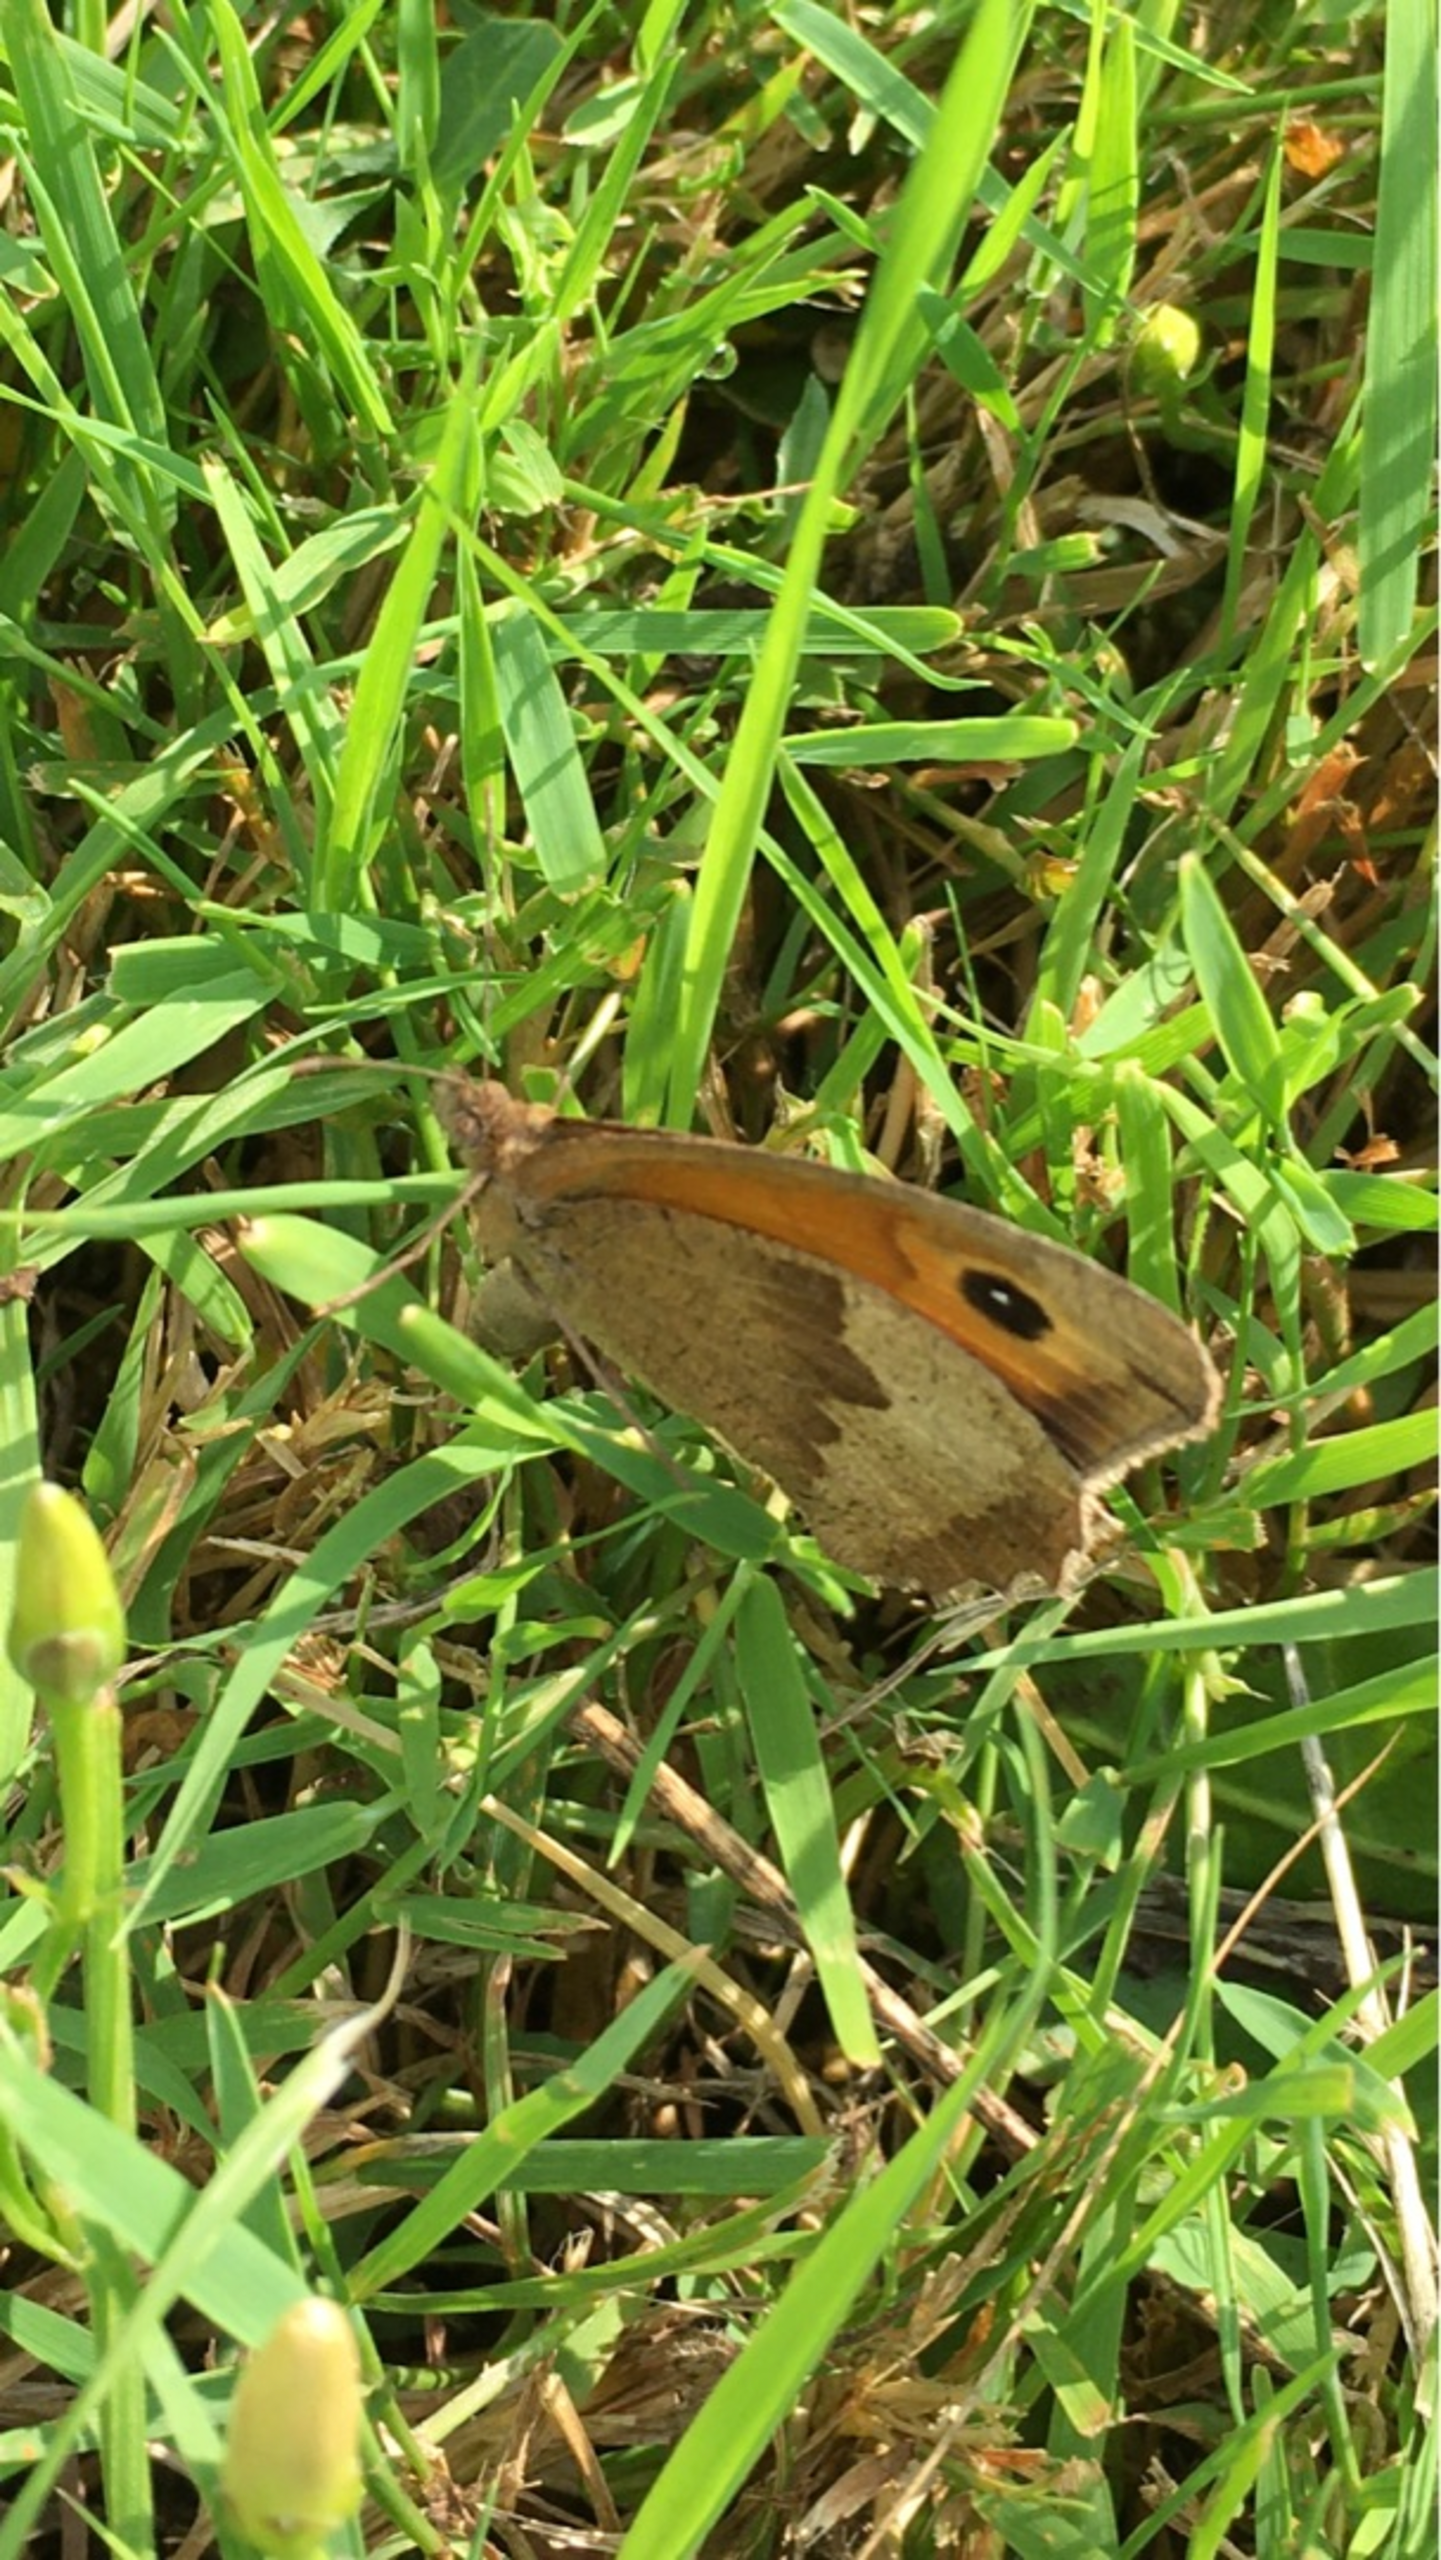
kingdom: Animalia
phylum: Arthropoda
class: Insecta
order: Lepidoptera
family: Nymphalidae
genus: Maniola
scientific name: Maniola jurtina
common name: Græsrandøje
